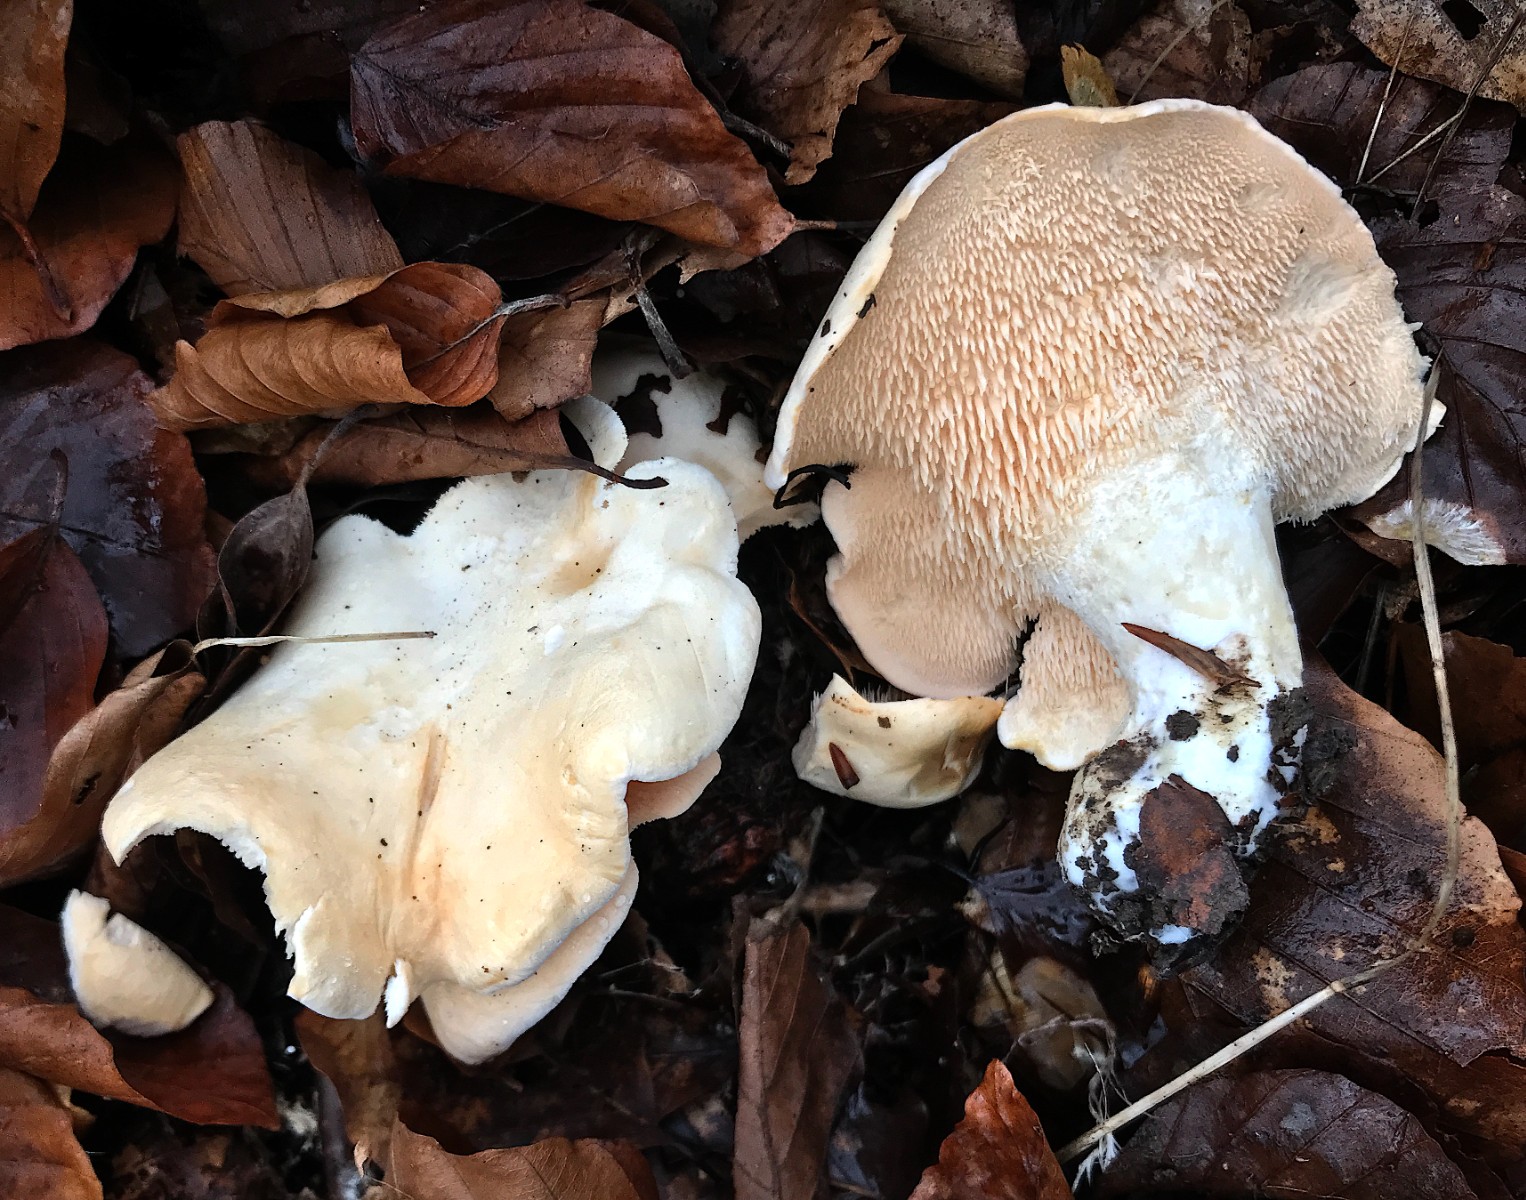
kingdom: Fungi
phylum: Basidiomycota
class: Agaricomycetes
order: Cantharellales
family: Hydnaceae
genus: Hydnum
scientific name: Hydnum repandum
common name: almindelig pigsvamp
